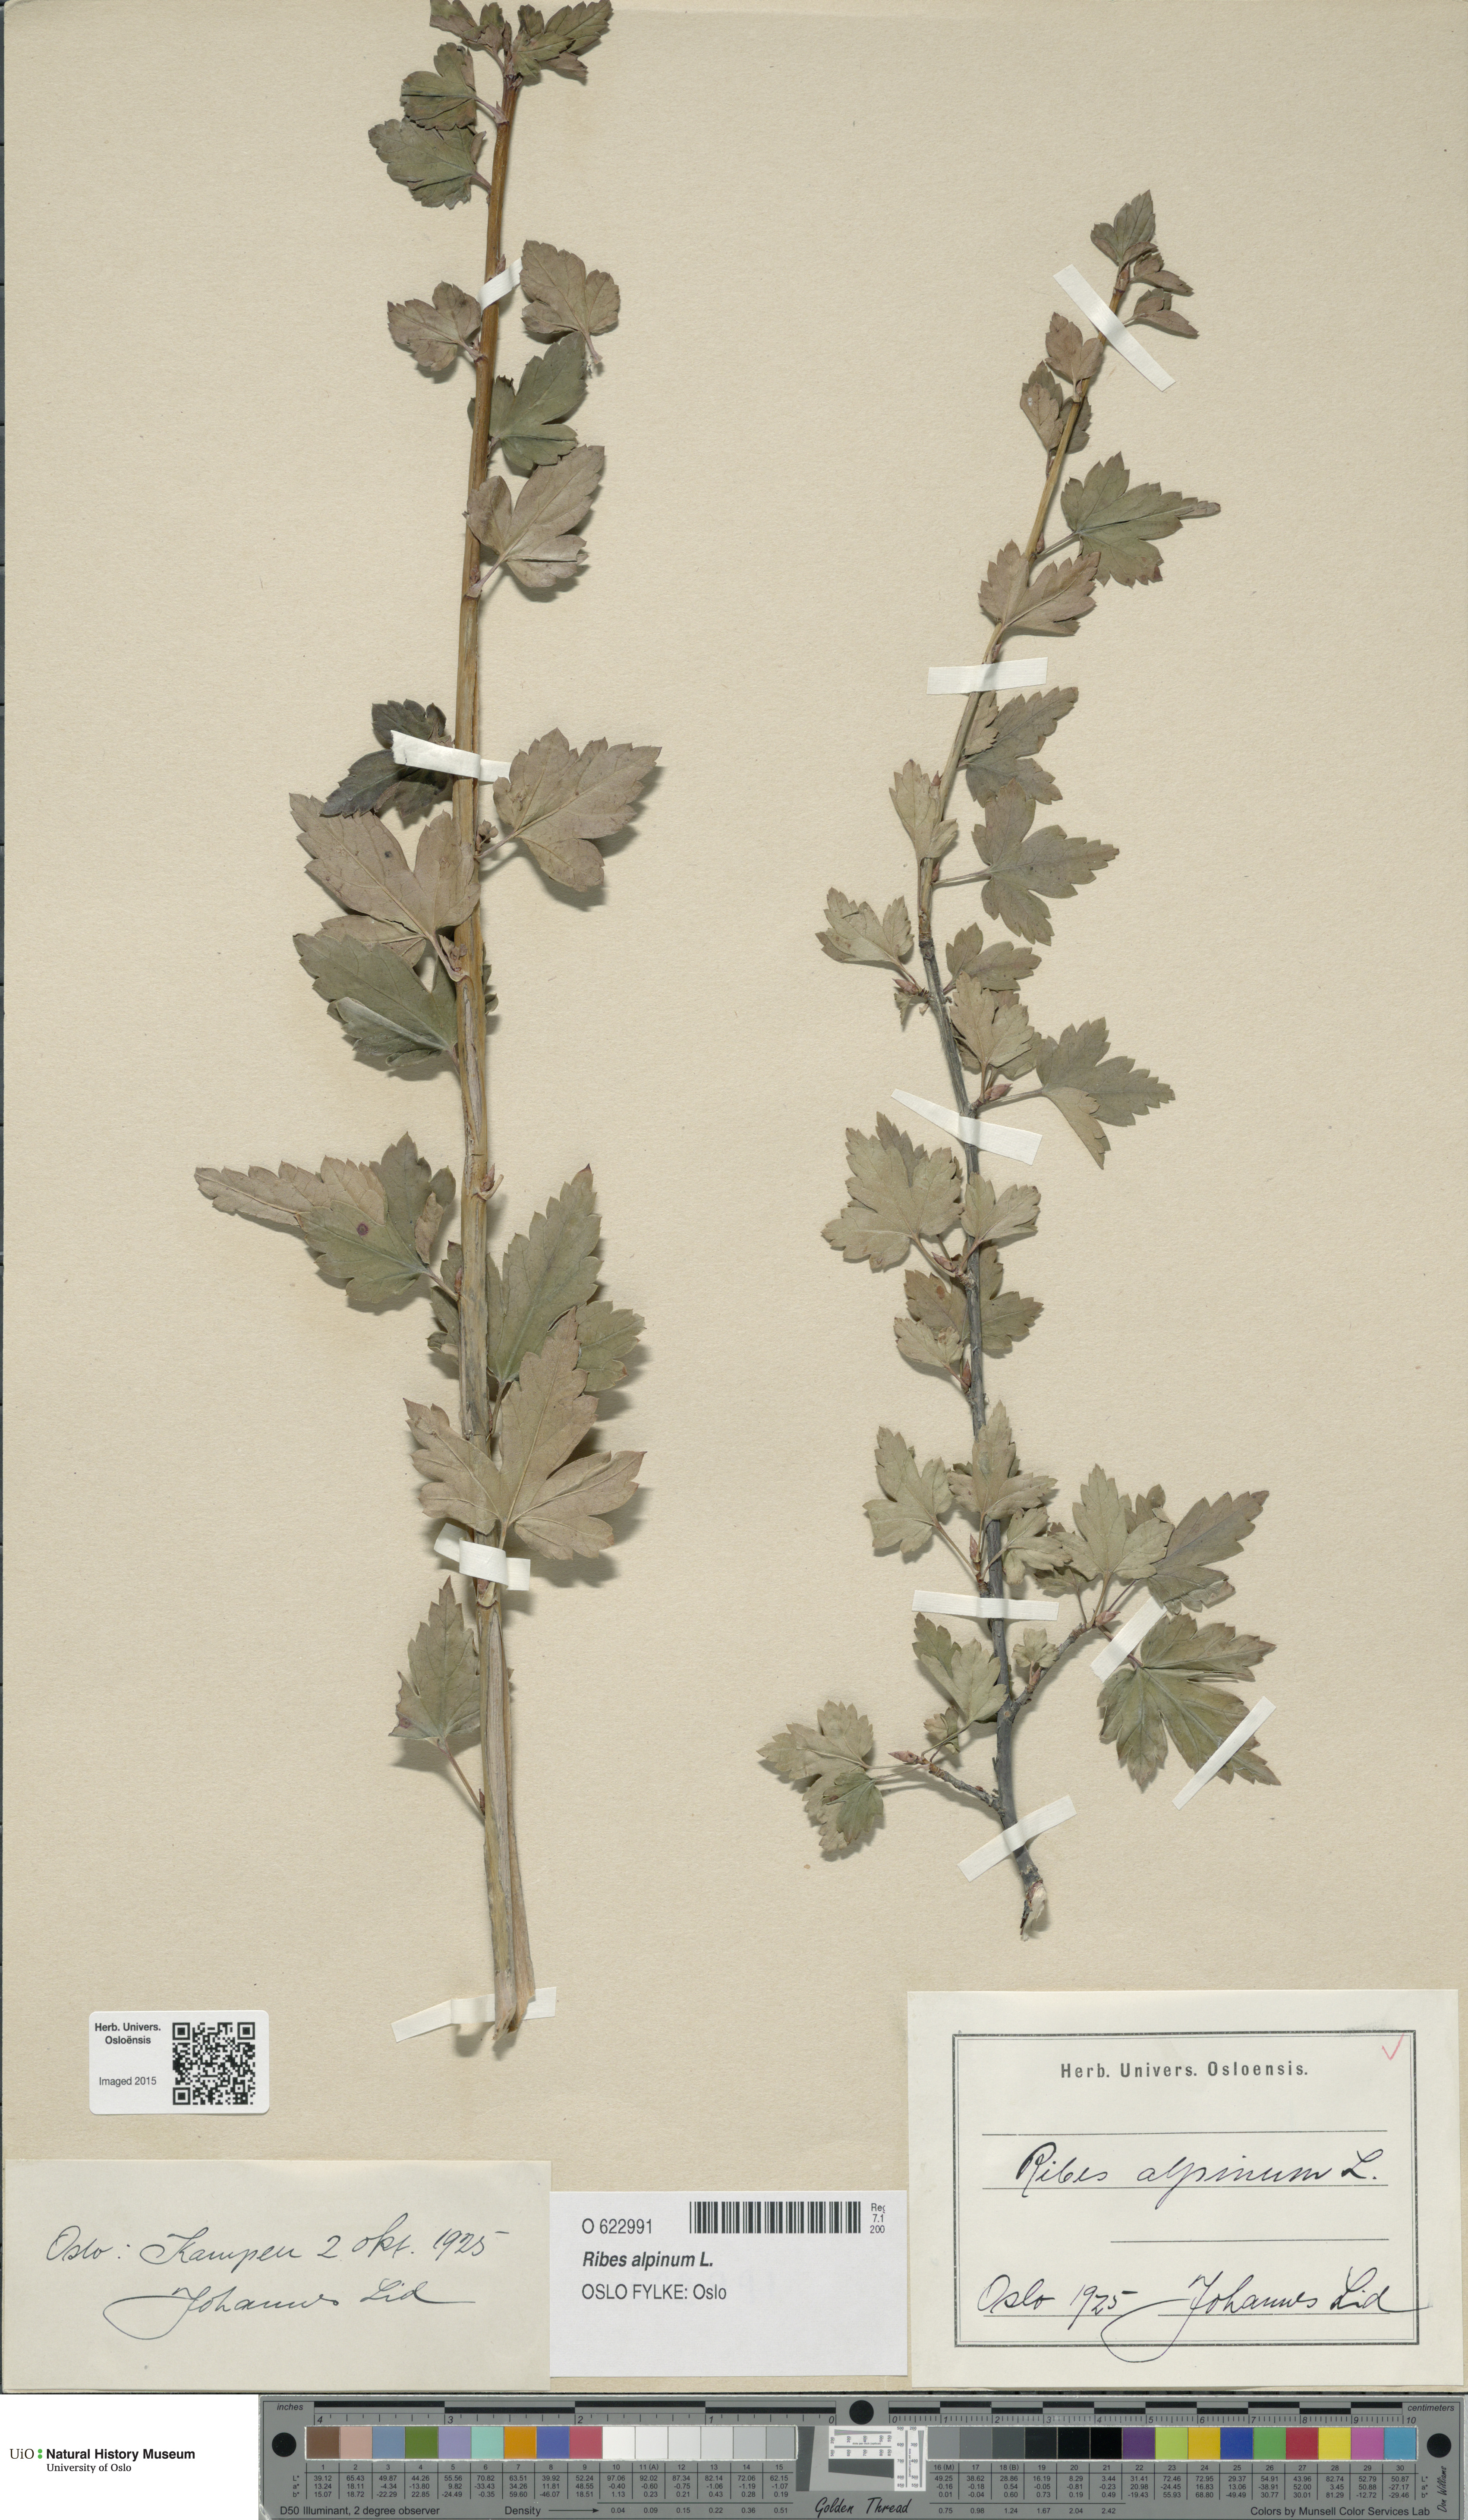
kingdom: Plantae
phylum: Tracheophyta
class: Magnoliopsida
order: Saxifragales
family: Grossulariaceae
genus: Ribes
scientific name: Ribes alpinum
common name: Alpine currant
